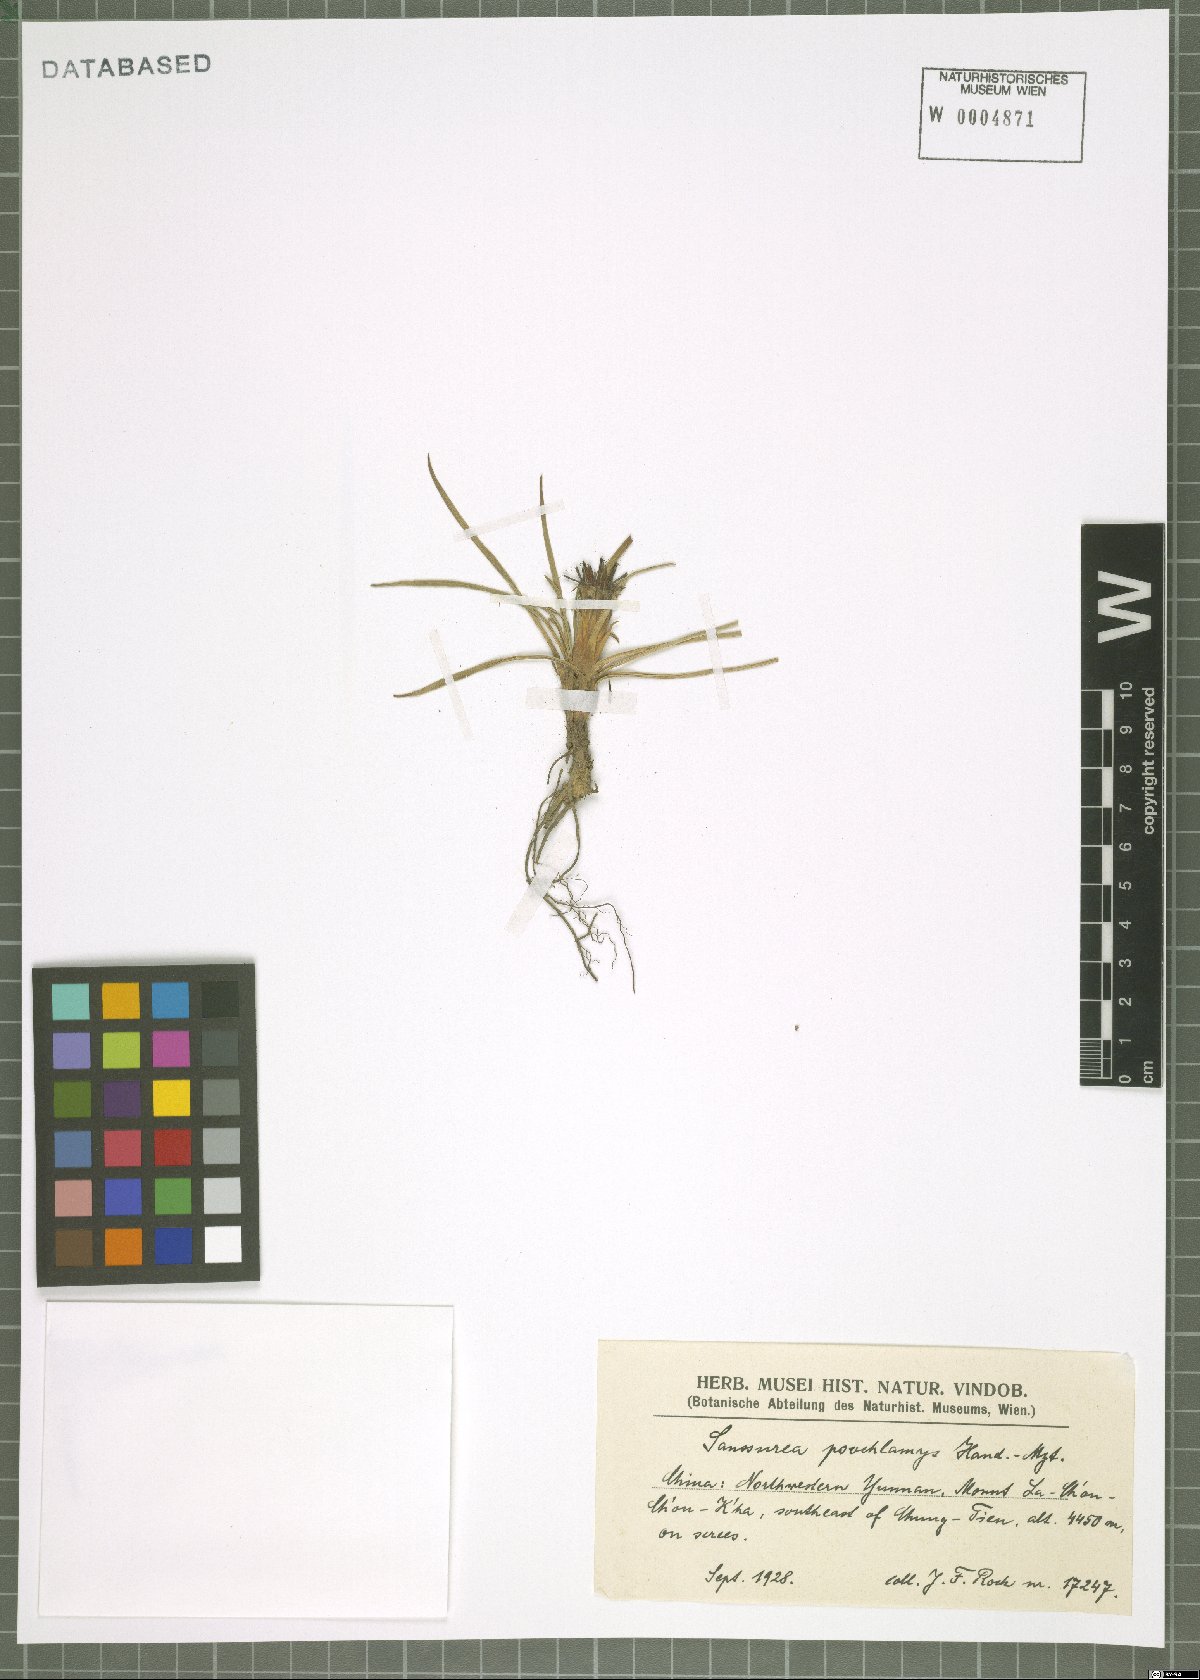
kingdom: Plantae
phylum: Tracheophyta
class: Magnoliopsida
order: Asterales
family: Asteraceae
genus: Saussurea
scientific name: Saussurea poochlamys
